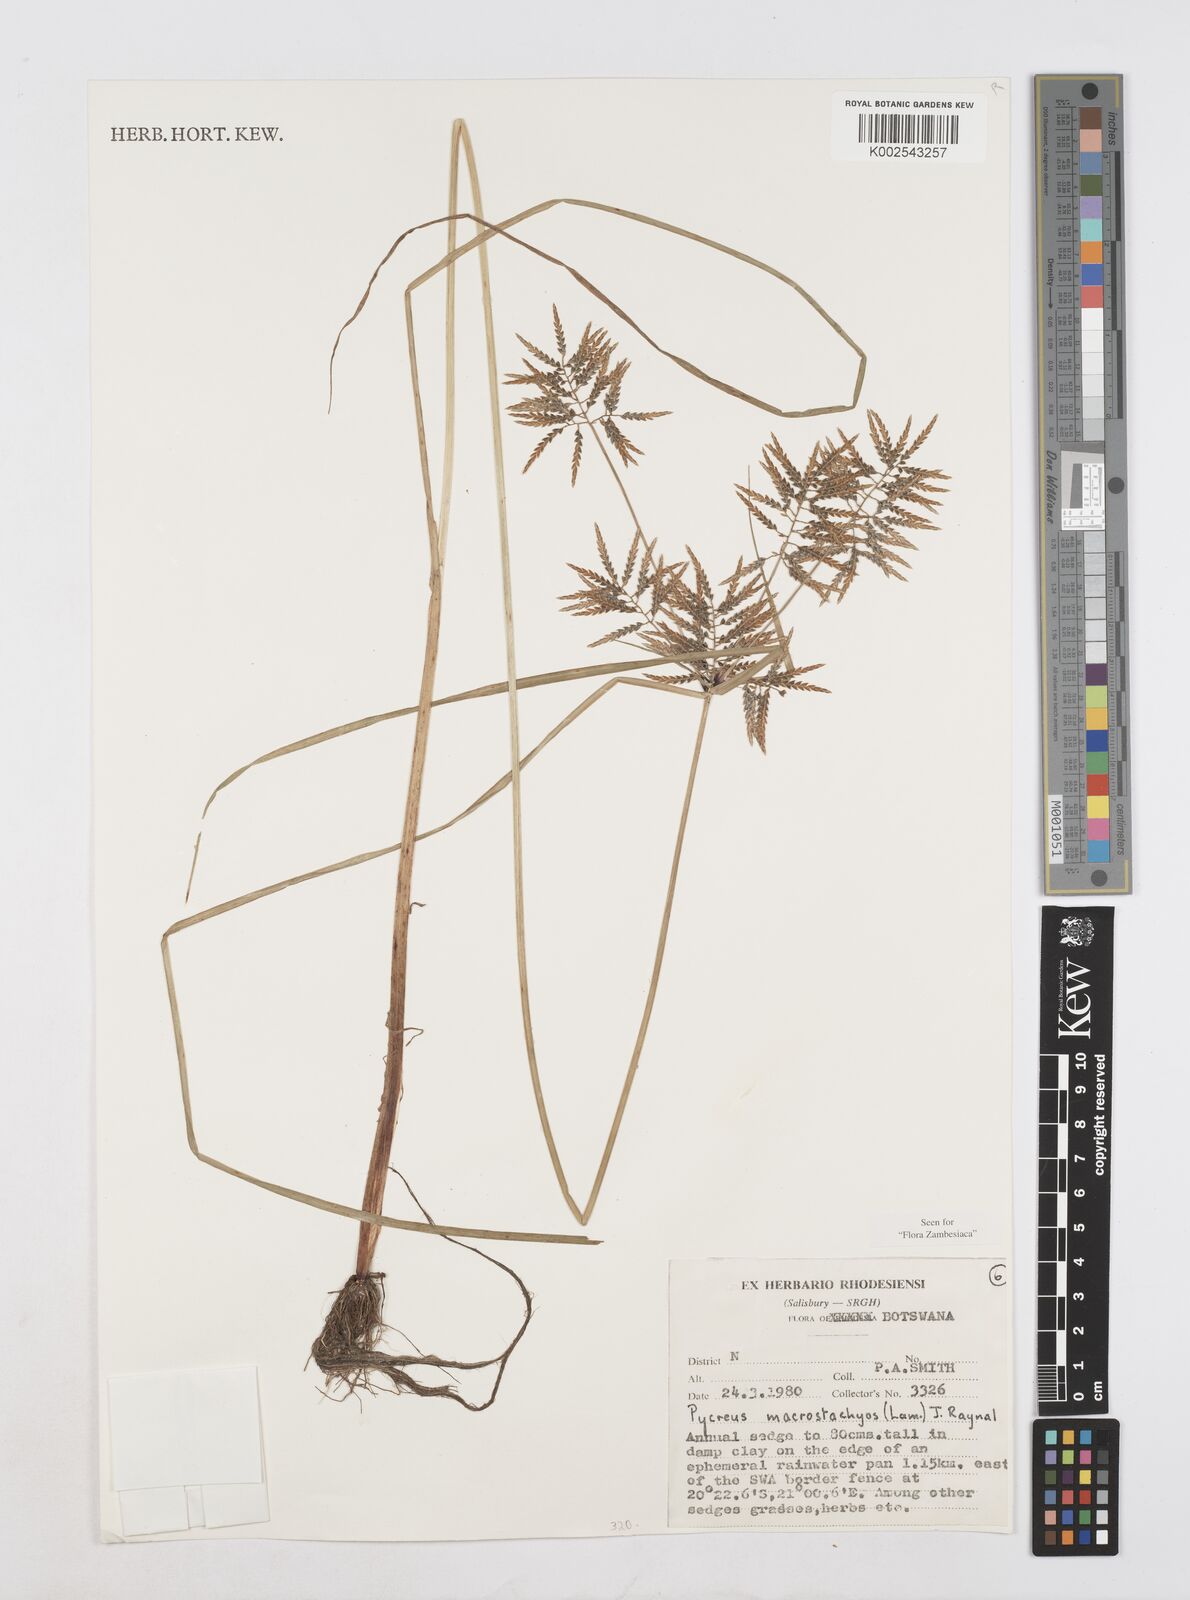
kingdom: Plantae
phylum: Tracheophyta
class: Liliopsida
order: Poales
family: Cyperaceae
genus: Cyperus
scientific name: Cyperus macrostachyos
